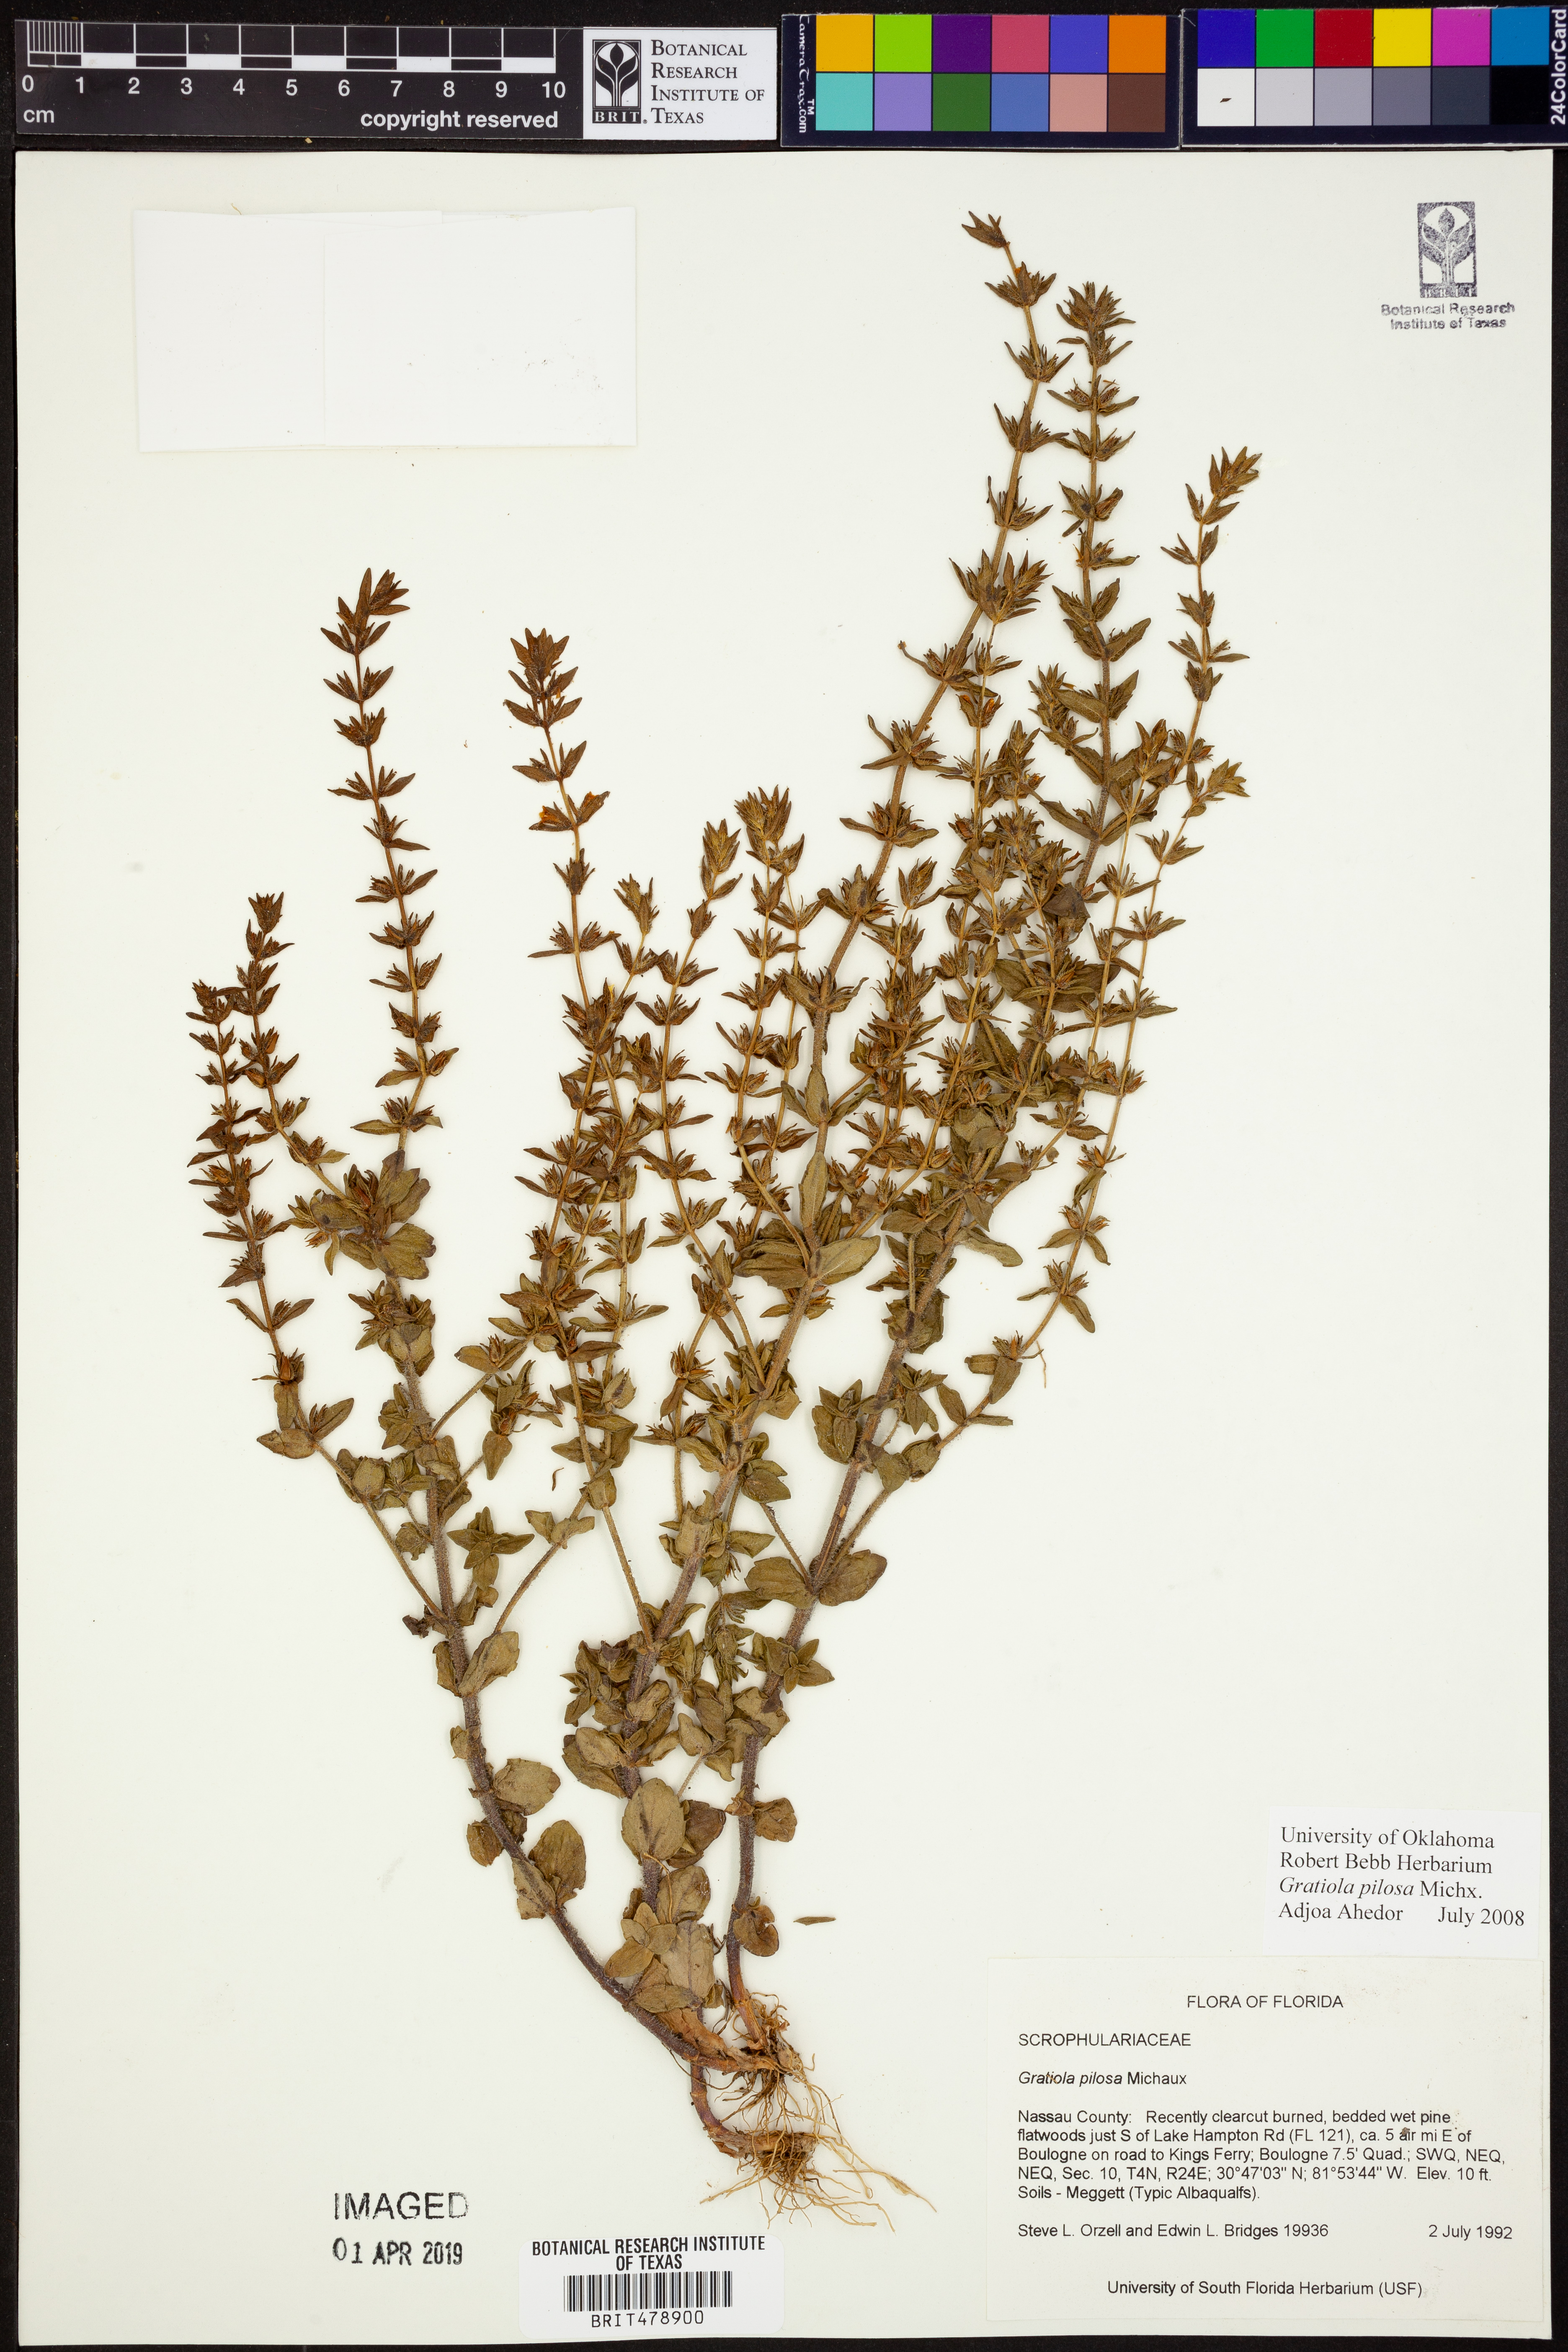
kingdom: Plantae
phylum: Tracheophyta
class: Magnoliopsida
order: Lamiales
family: Plantaginaceae
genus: Gratiola
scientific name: Gratiola pilosa
